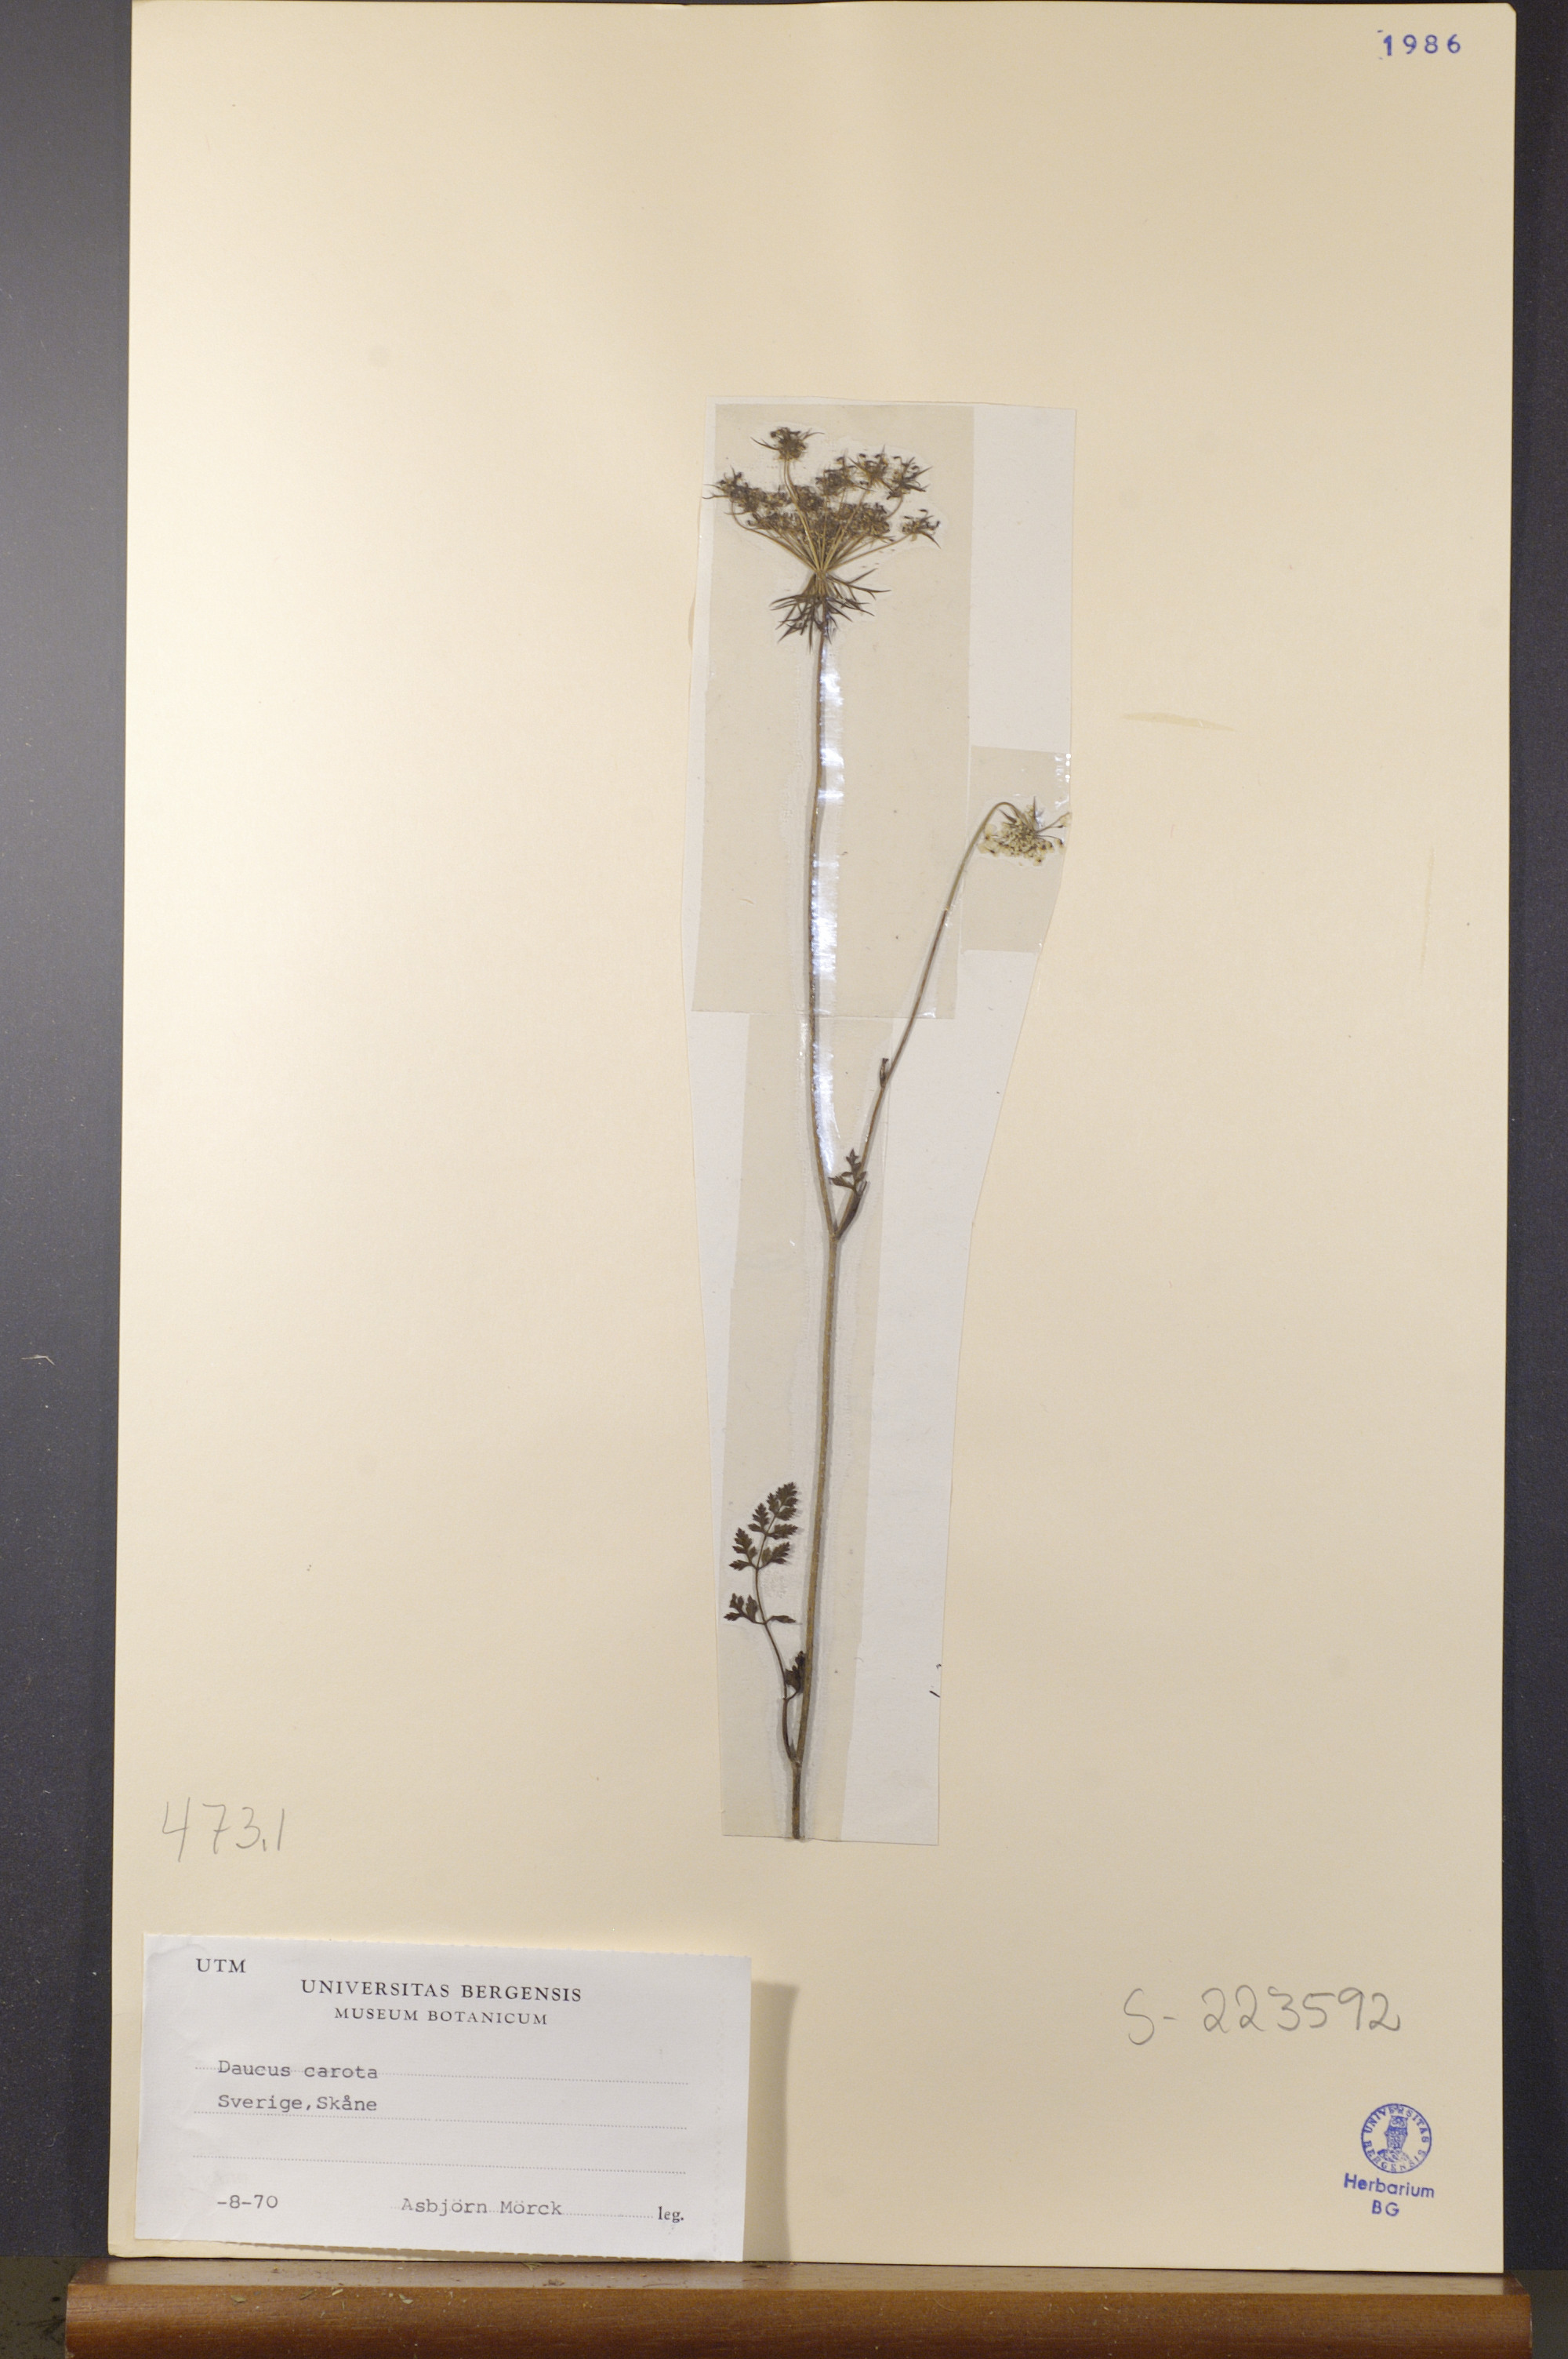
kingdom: Plantae
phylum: Tracheophyta
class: Magnoliopsida
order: Apiales
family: Apiaceae
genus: Daucus
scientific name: Daucus carota
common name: Wild carrot
